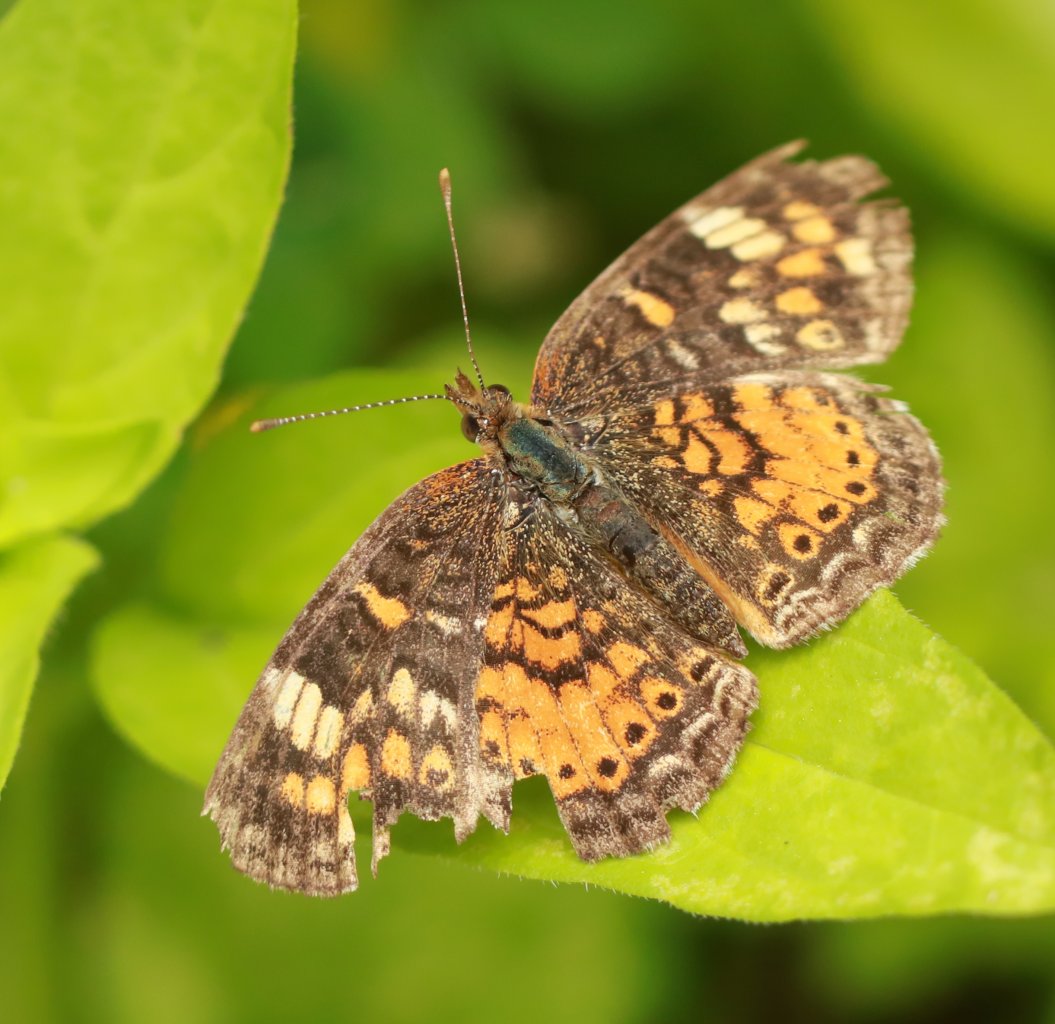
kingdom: Animalia
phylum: Arthropoda
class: Insecta
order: Lepidoptera
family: Nymphalidae
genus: Phyciodes
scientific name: Phyciodes tharos
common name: Northern Crescent
